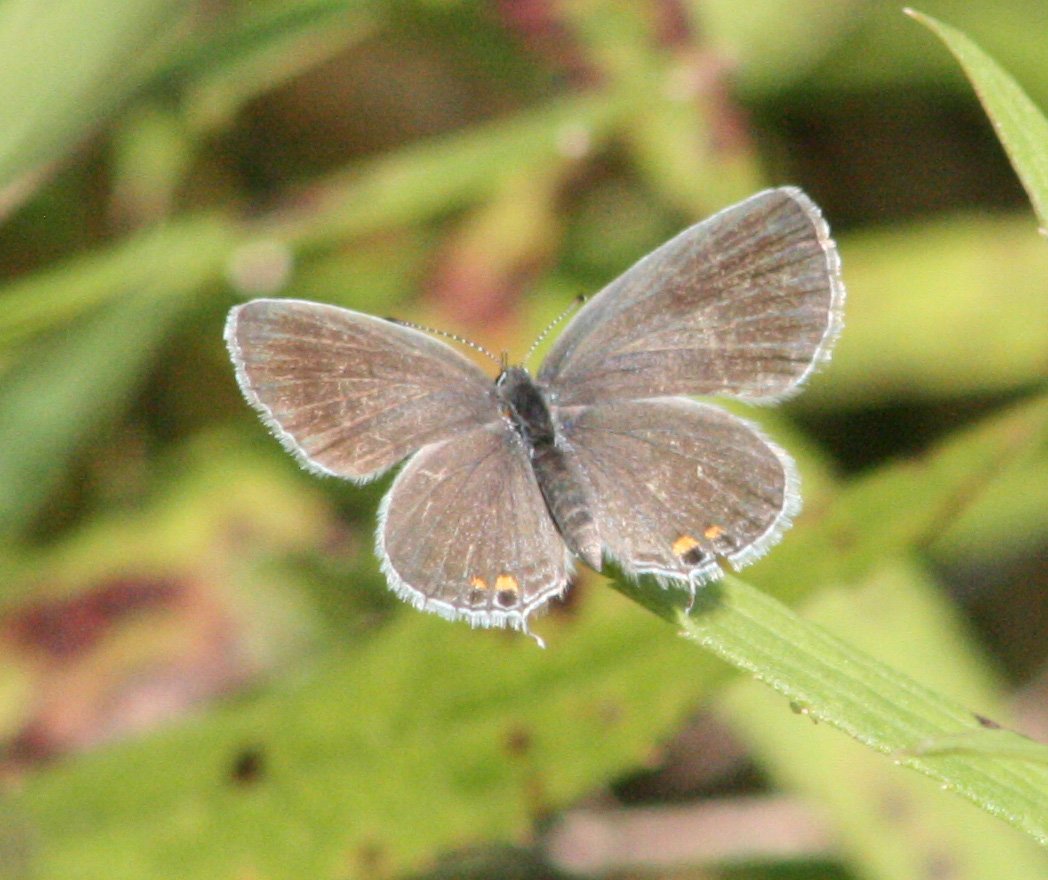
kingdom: Animalia
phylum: Arthropoda
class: Insecta
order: Lepidoptera
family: Lycaenidae
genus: Elkalyce
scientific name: Elkalyce comyntas
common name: Eastern Tailed-Blue
